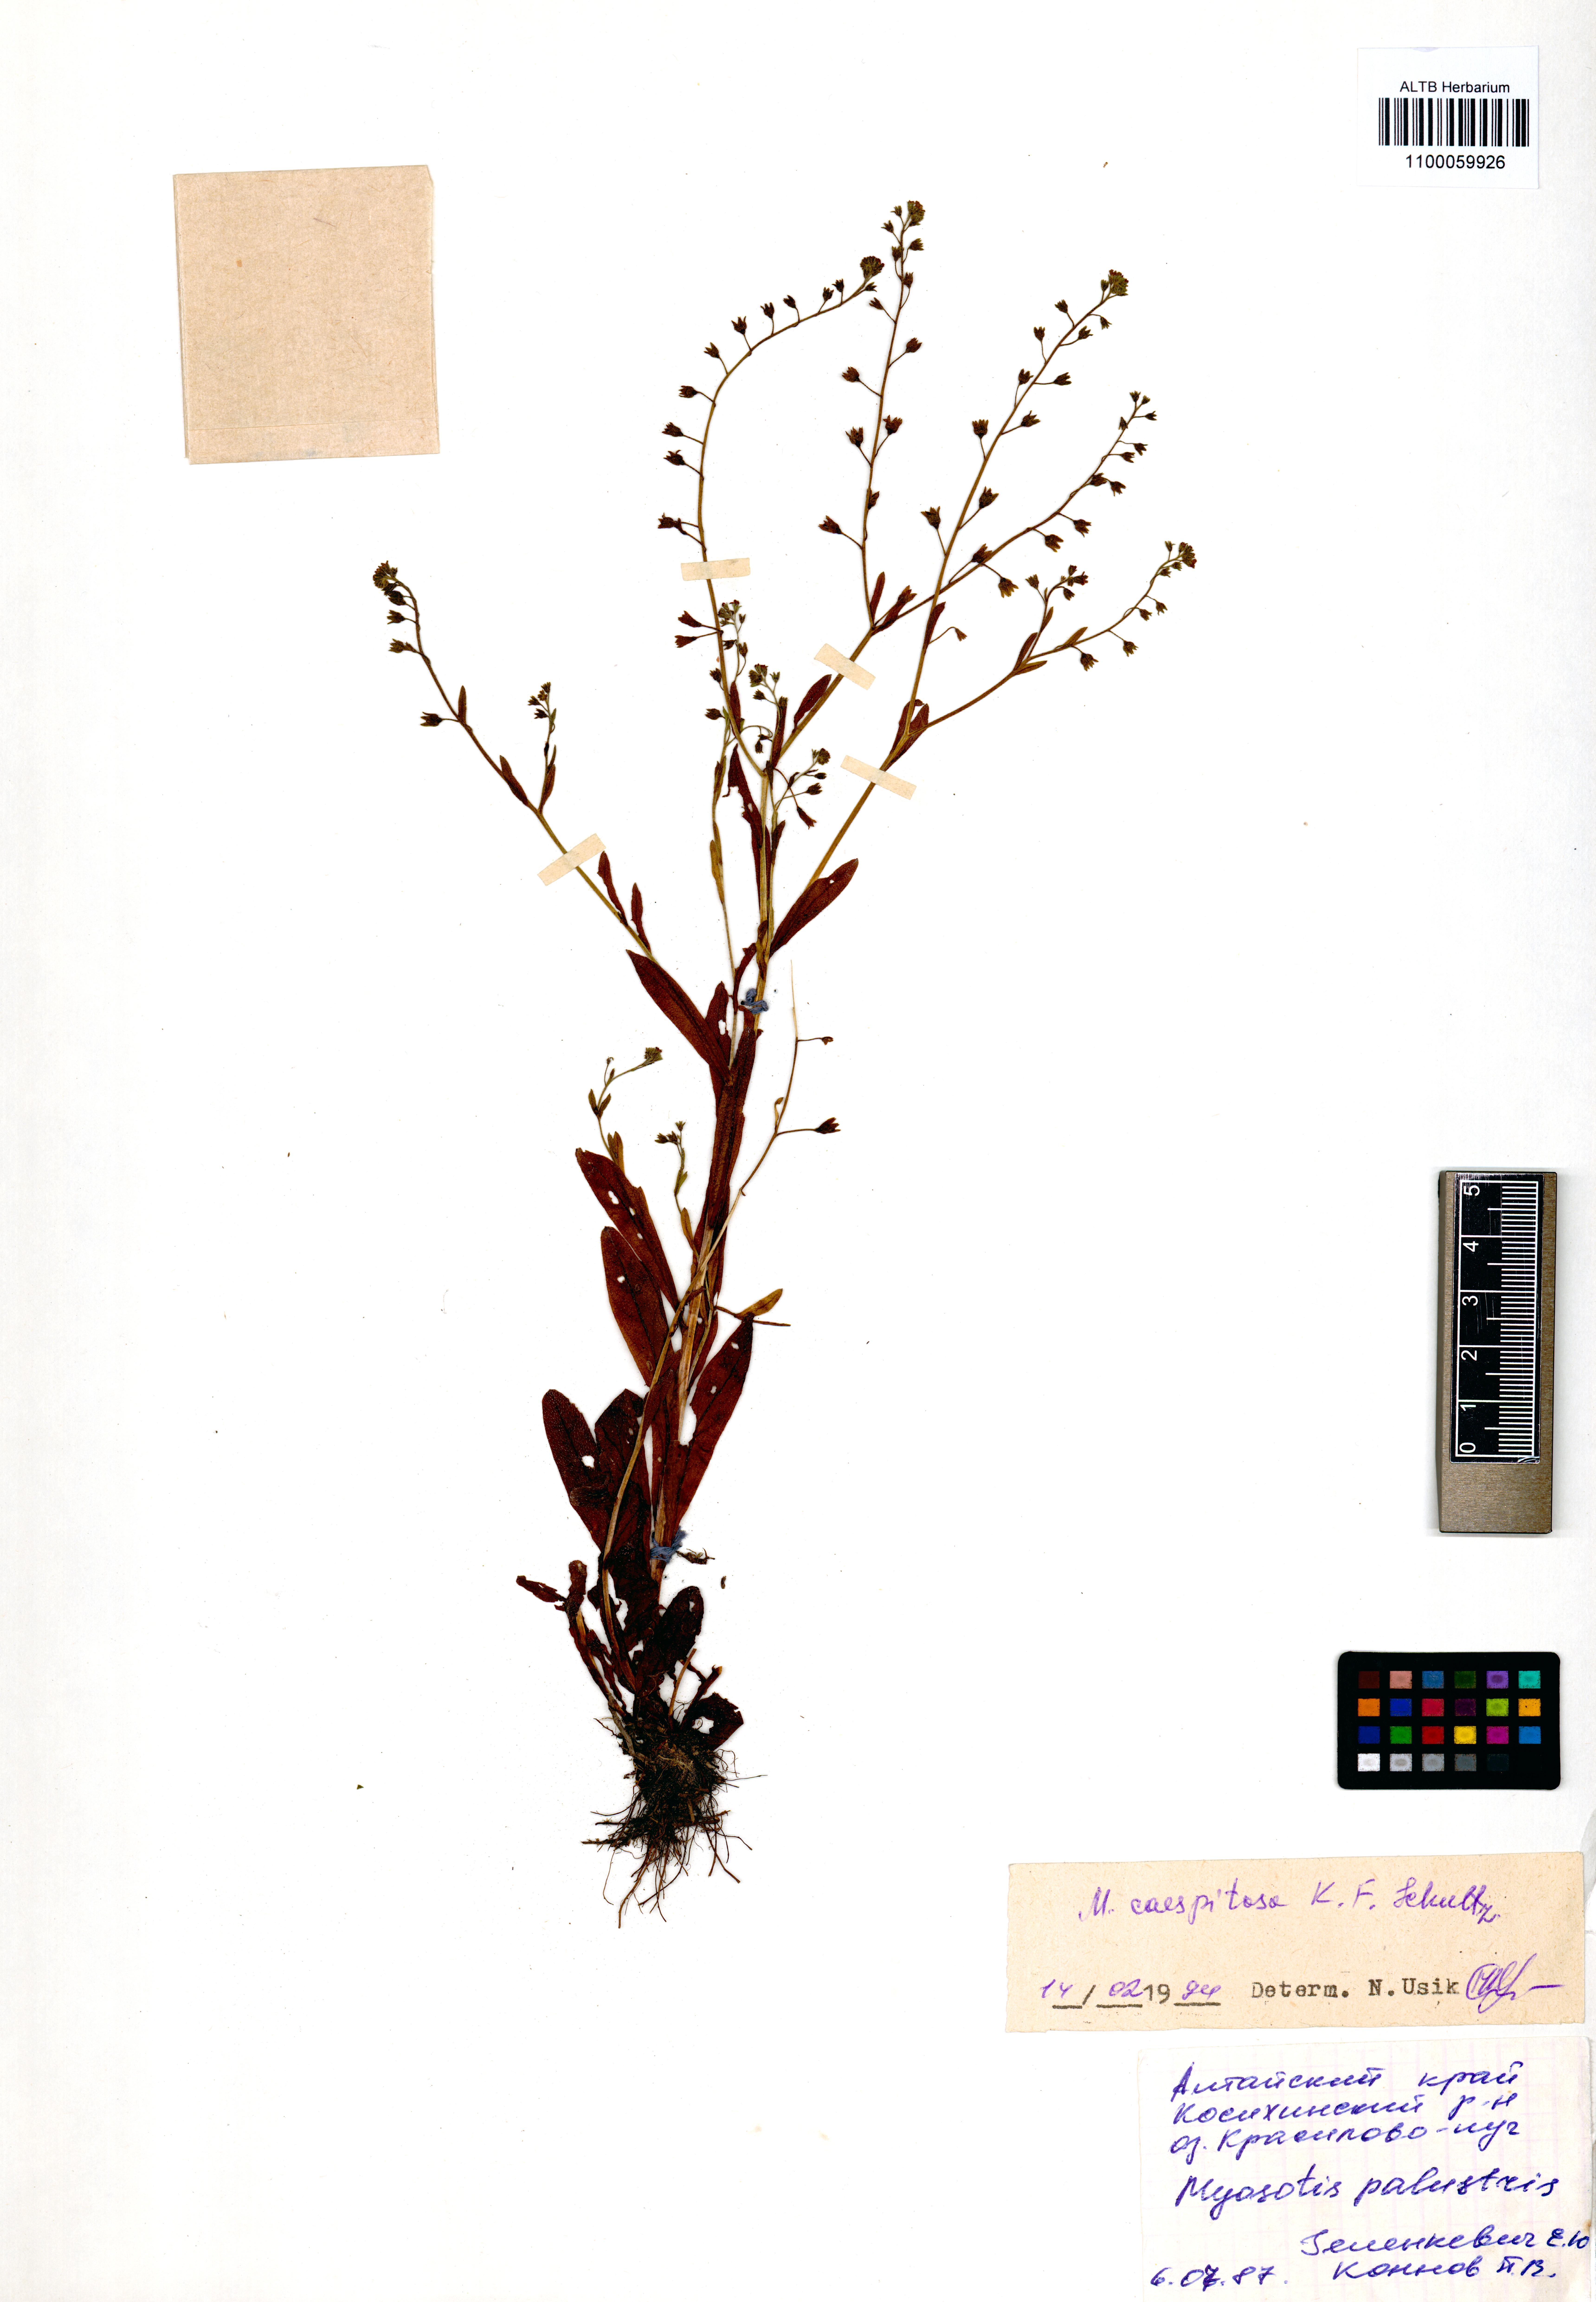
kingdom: Plantae
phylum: Tracheophyta
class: Magnoliopsida
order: Boraginales
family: Boraginaceae
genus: Myosotis
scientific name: Myosotis laxa
